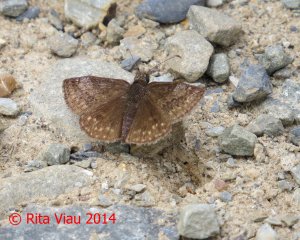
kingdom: Animalia
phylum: Arthropoda
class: Insecta
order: Lepidoptera
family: Hesperiidae
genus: Erynnis
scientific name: Erynnis icelus
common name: Dreamy Duskywing
